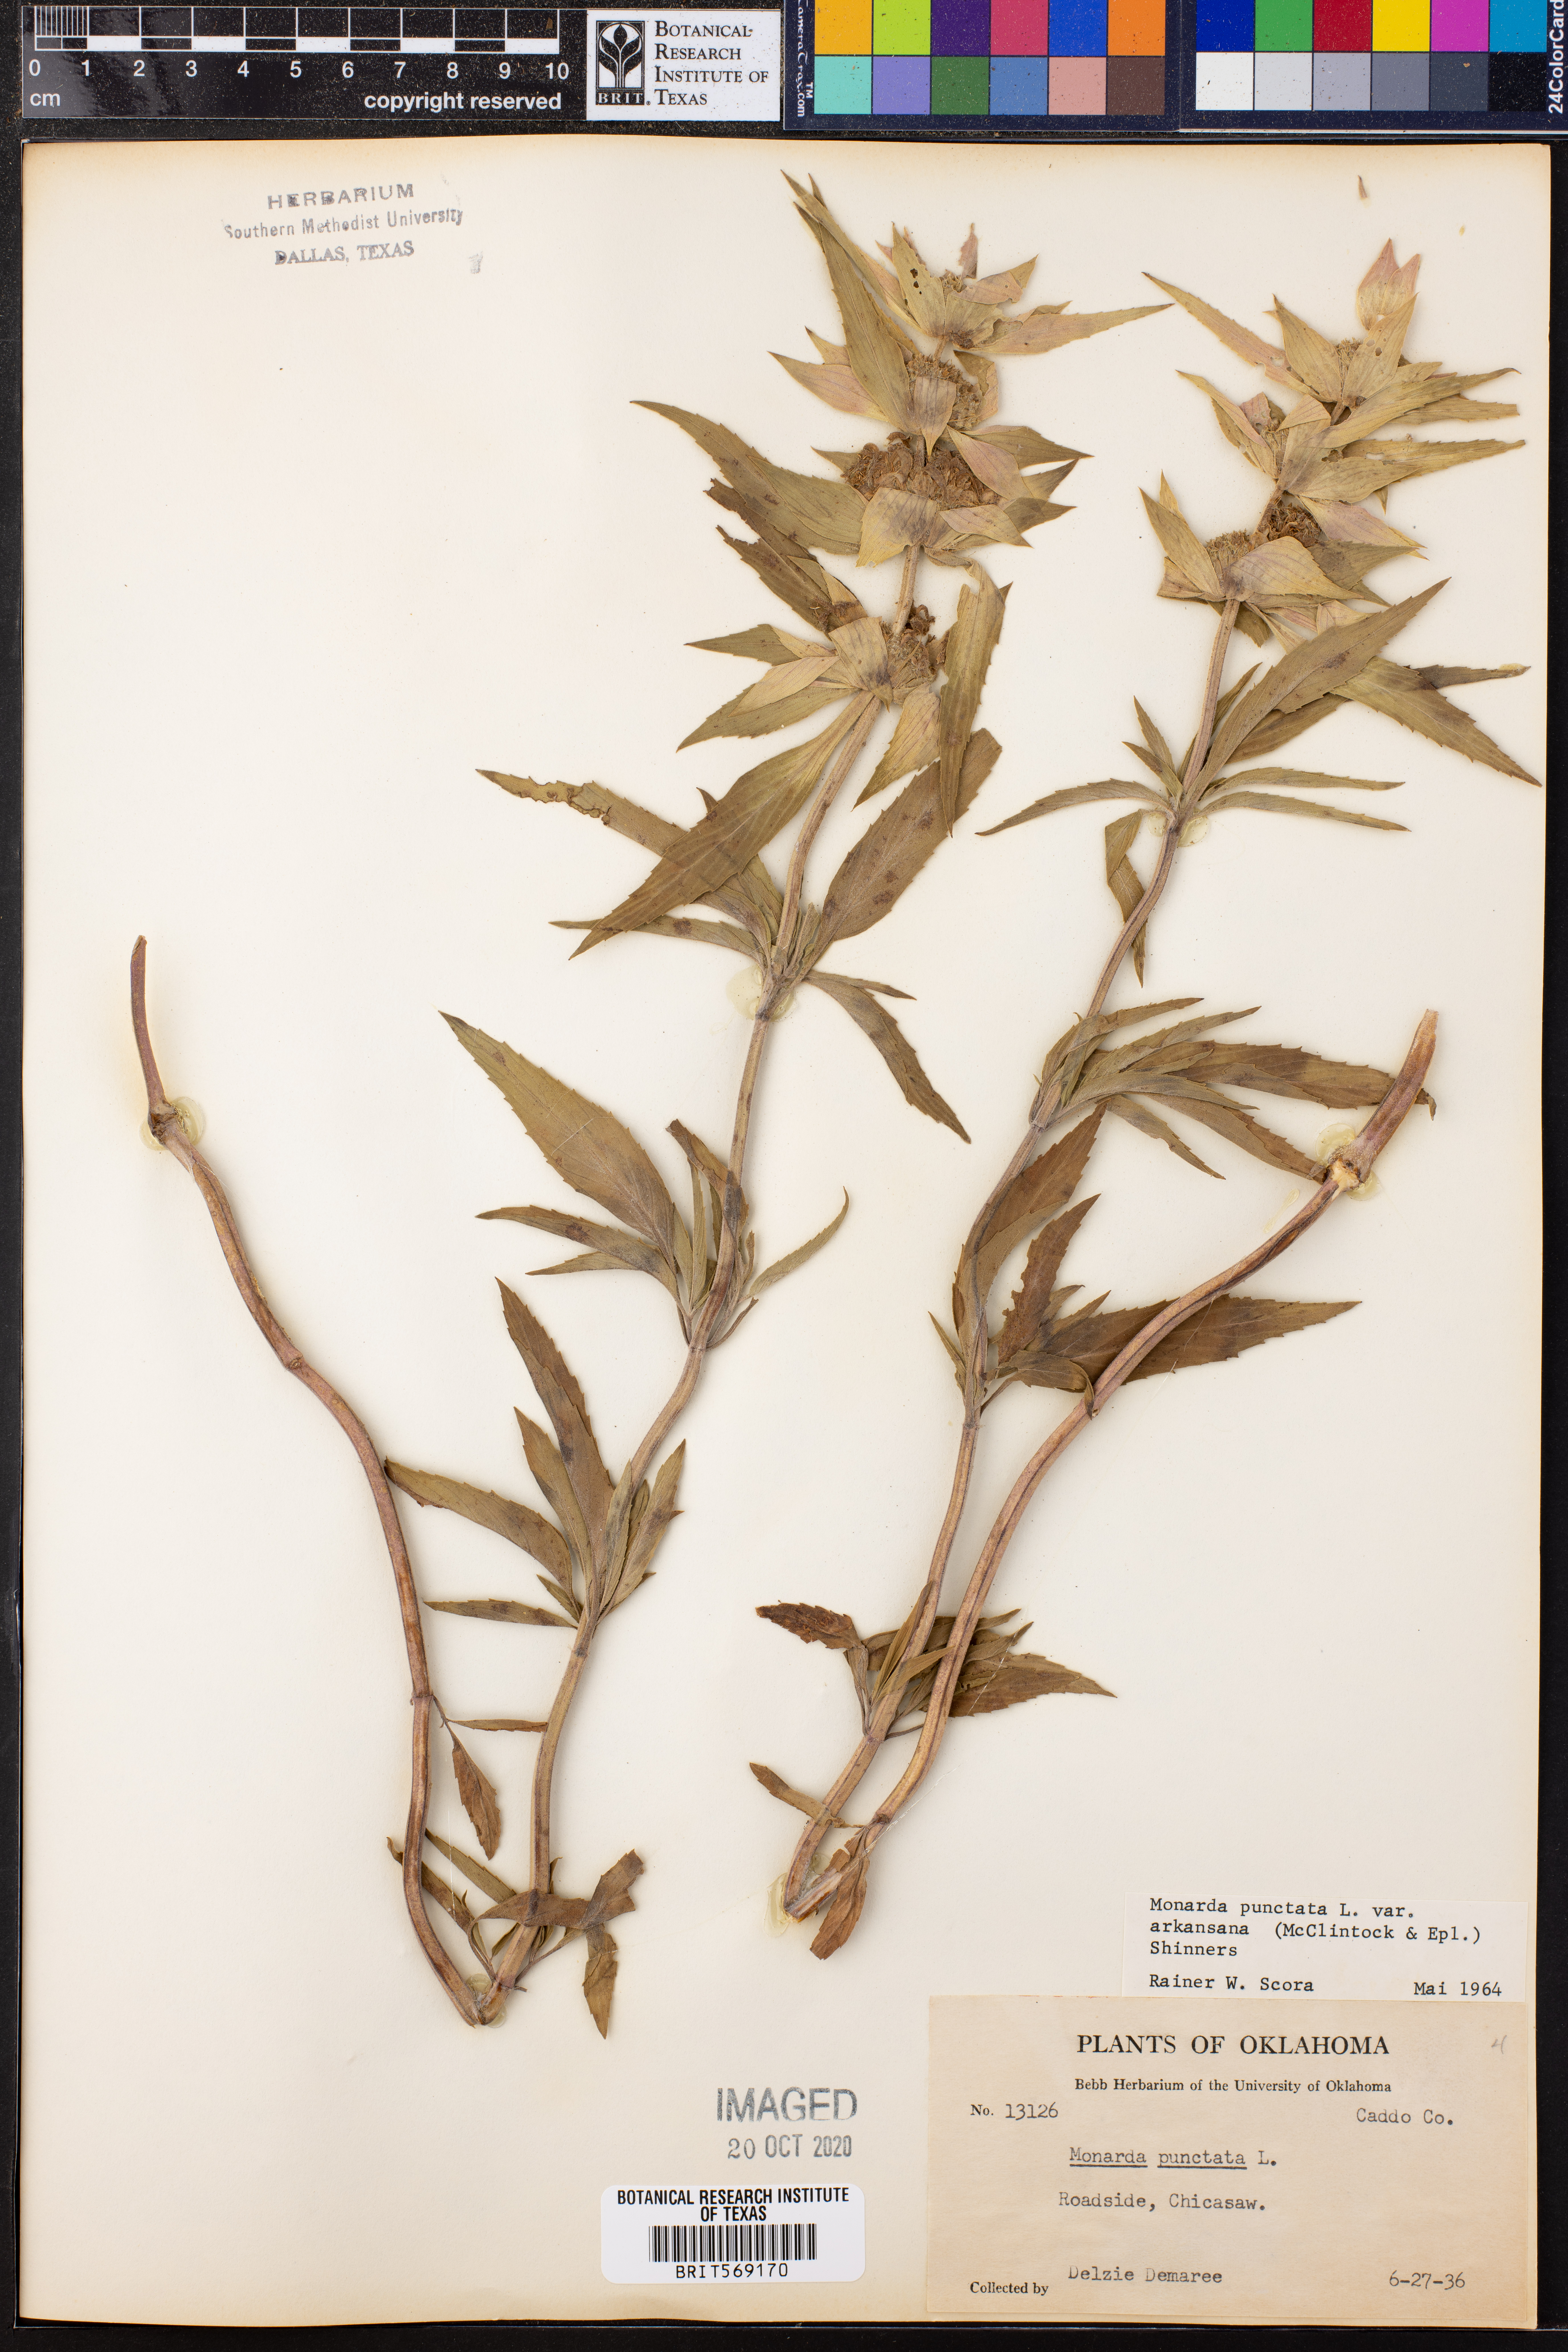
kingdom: Plantae
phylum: Tracheophyta
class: Magnoliopsida
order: Lamiales
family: Lamiaceae
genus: Monarda
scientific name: Monarda punctata
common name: Dotted monarda
